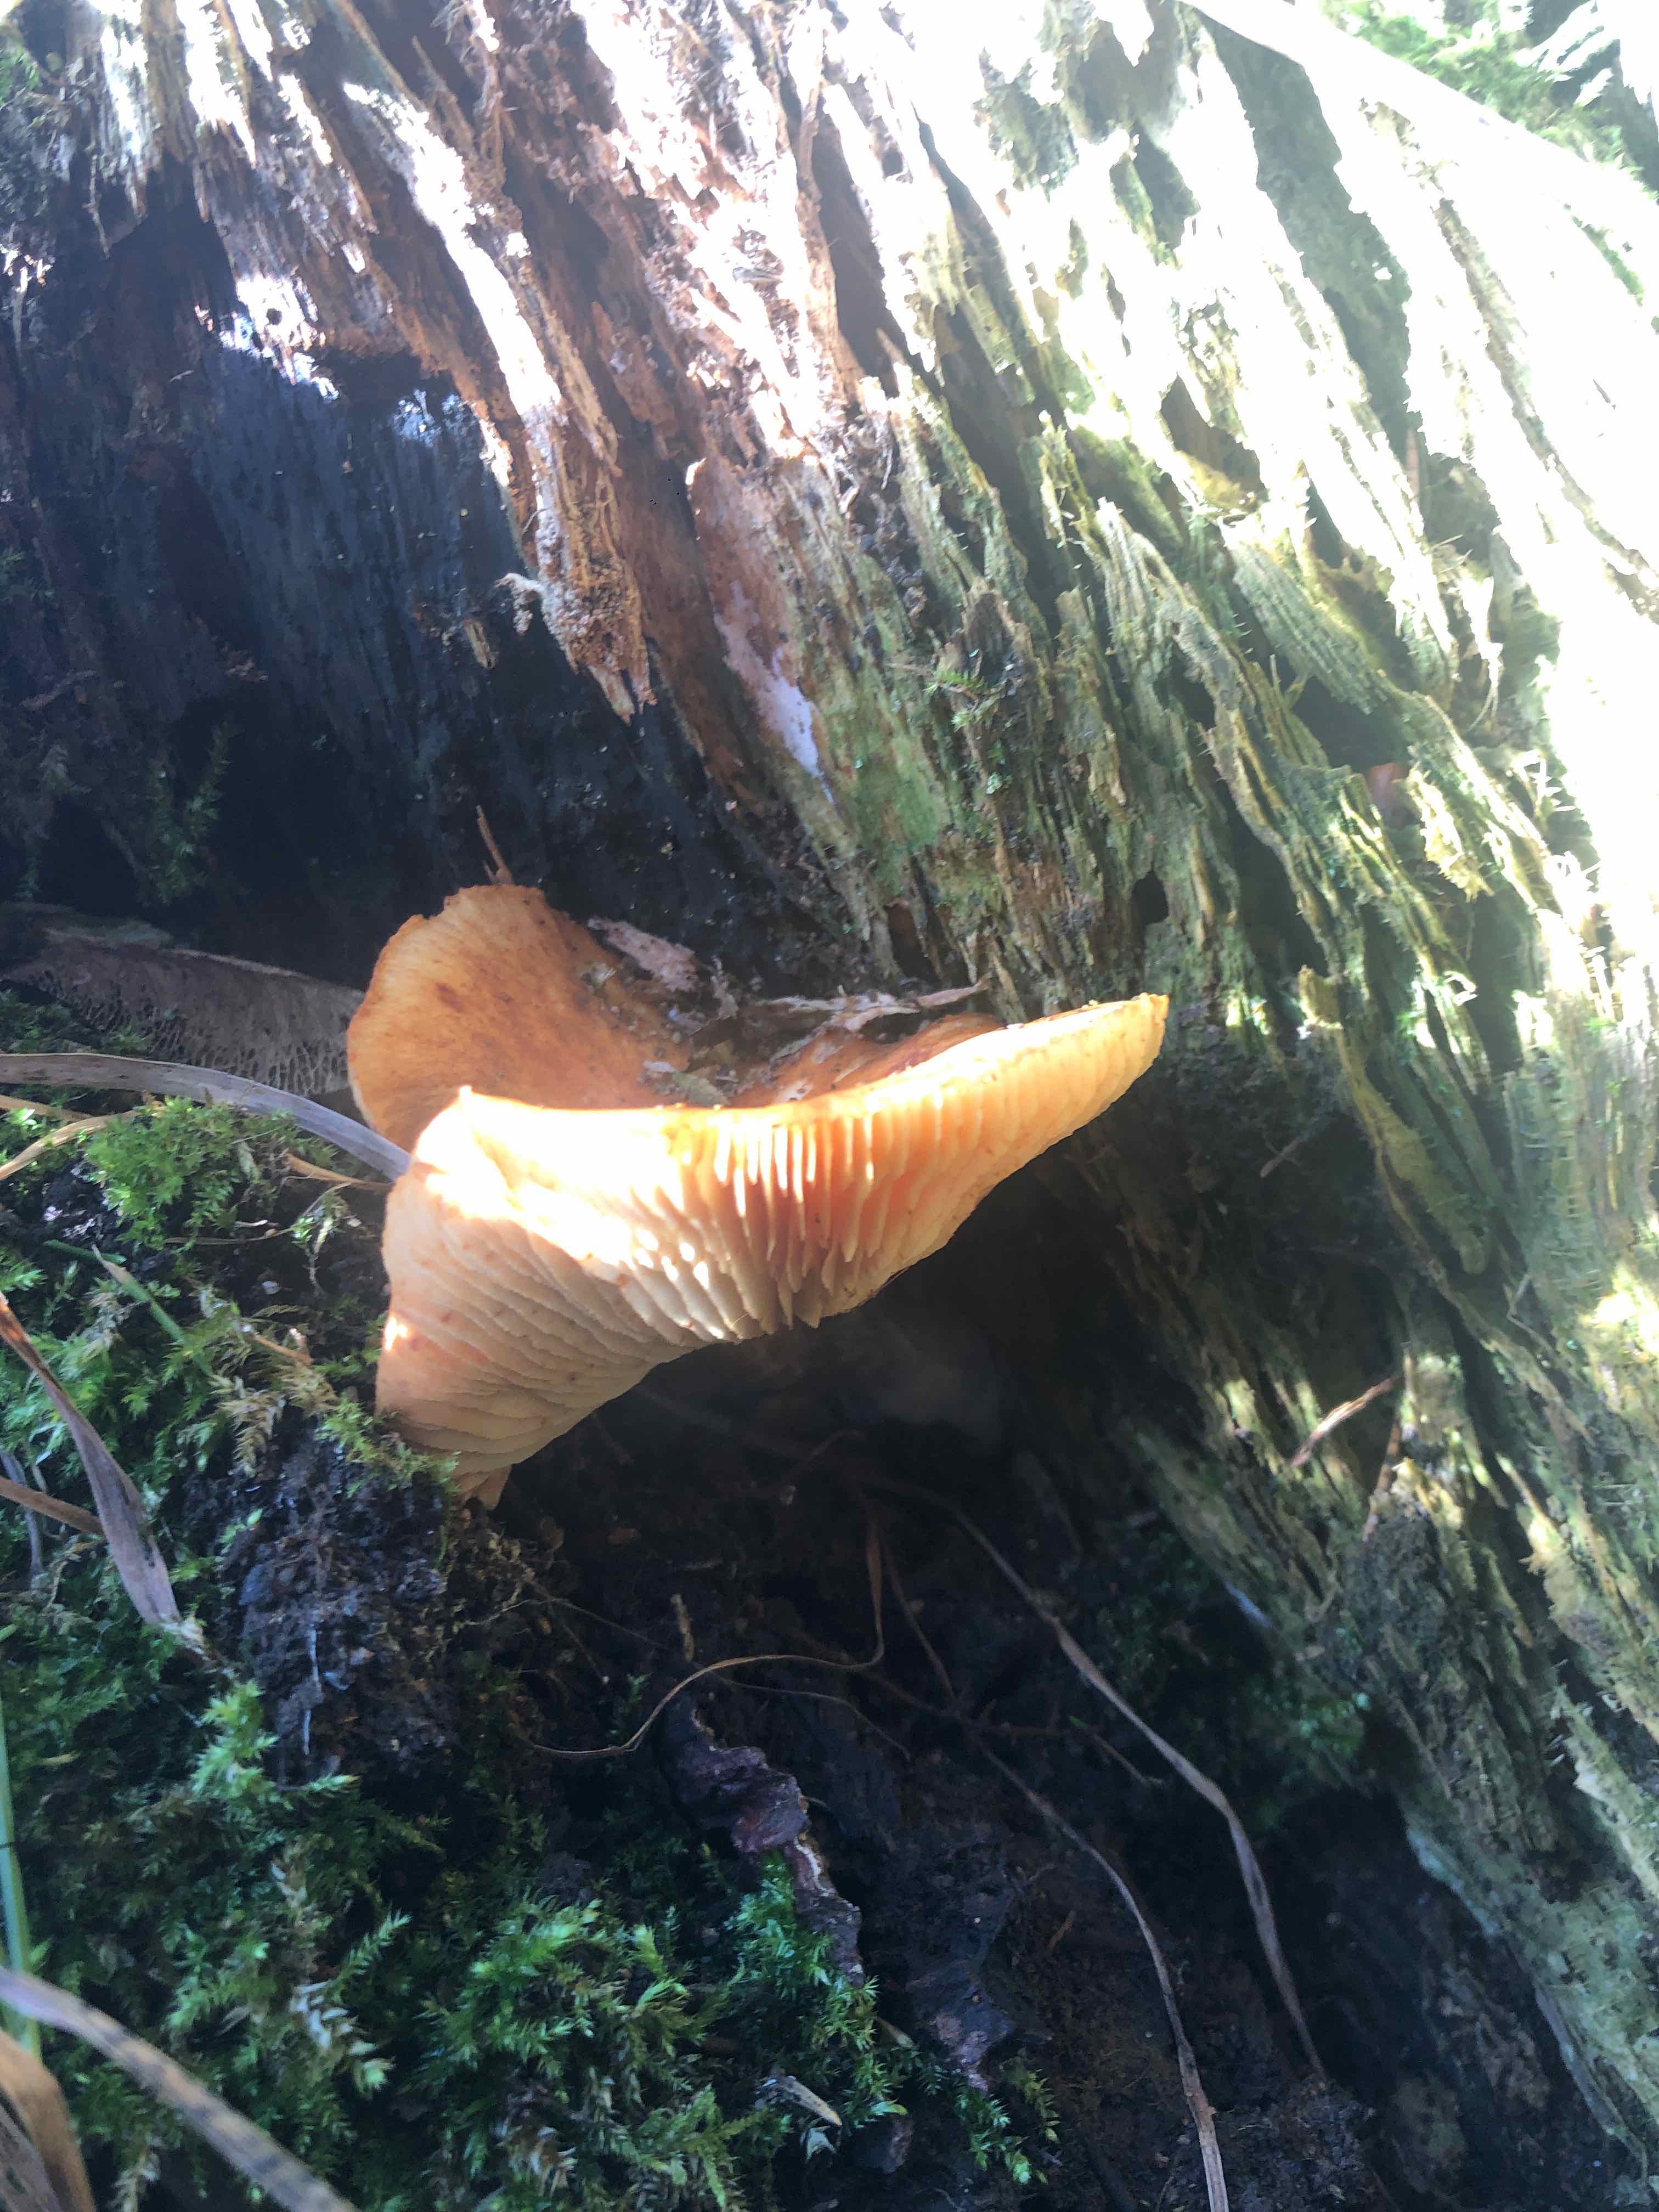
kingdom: Fungi
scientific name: Fungi
